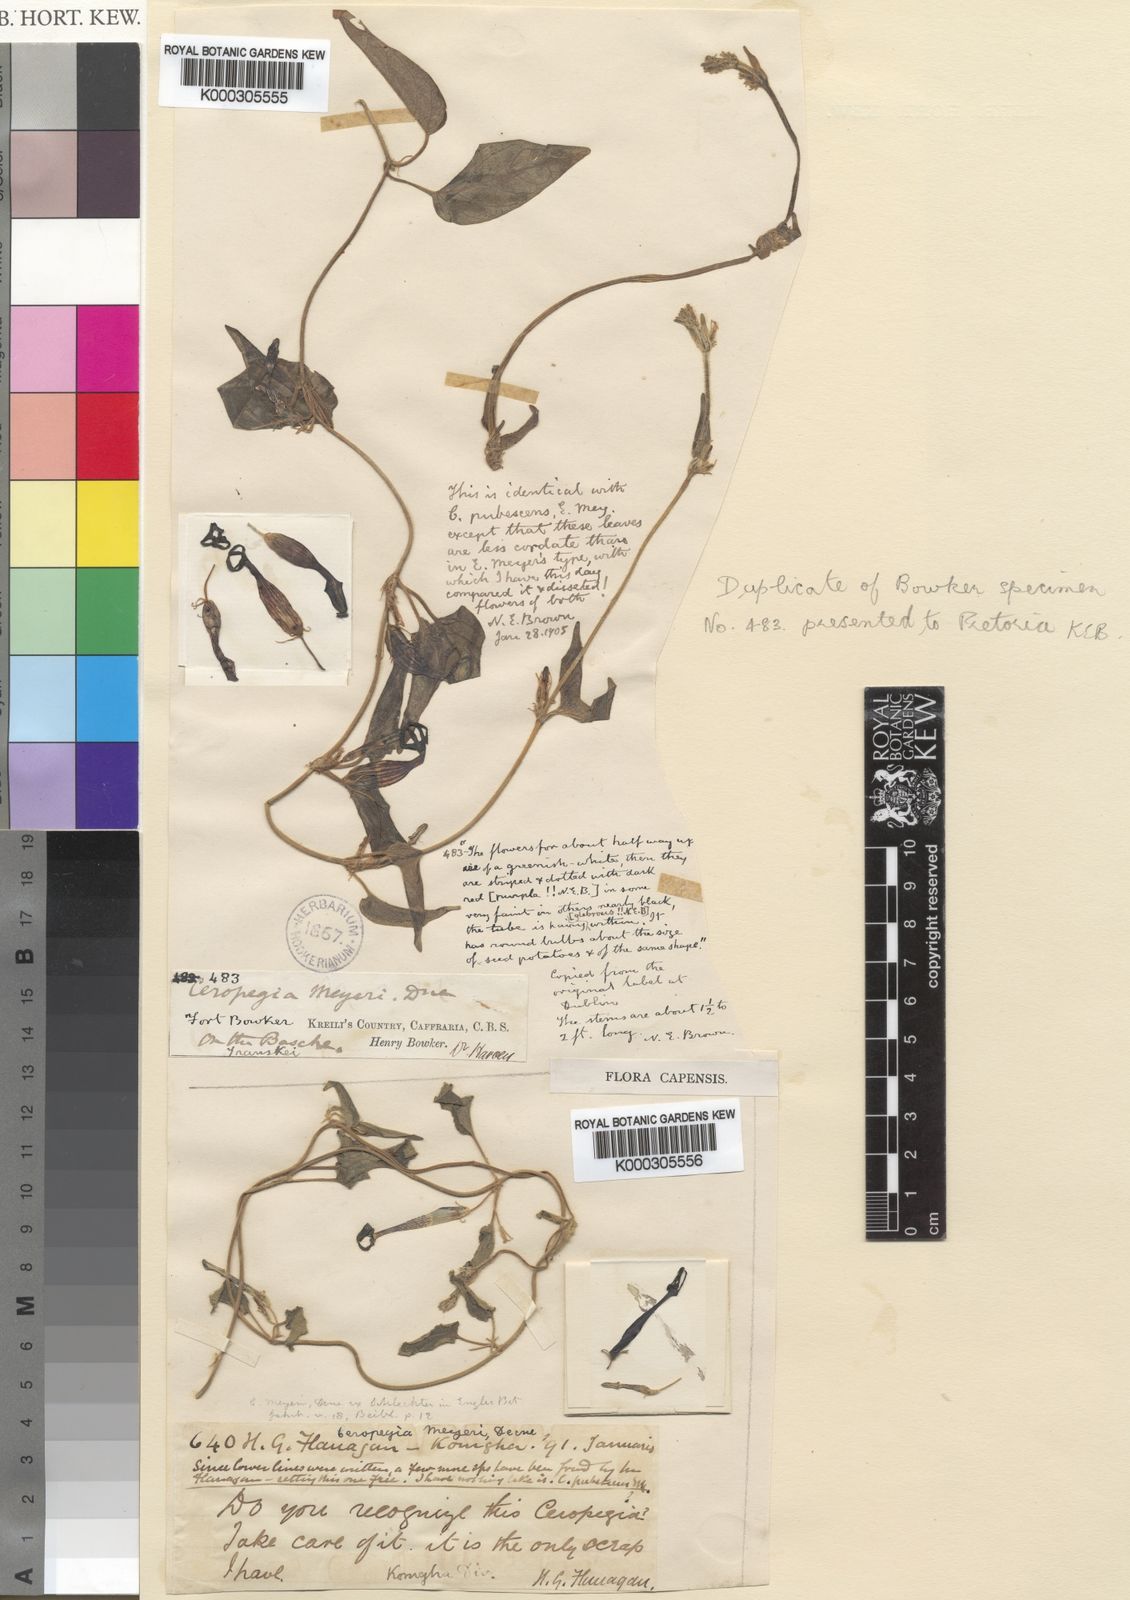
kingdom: Plantae
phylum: Tracheophyta
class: Magnoliopsida
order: Gentianales
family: Apocynaceae
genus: Ceropegia
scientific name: Ceropegia meyeri
